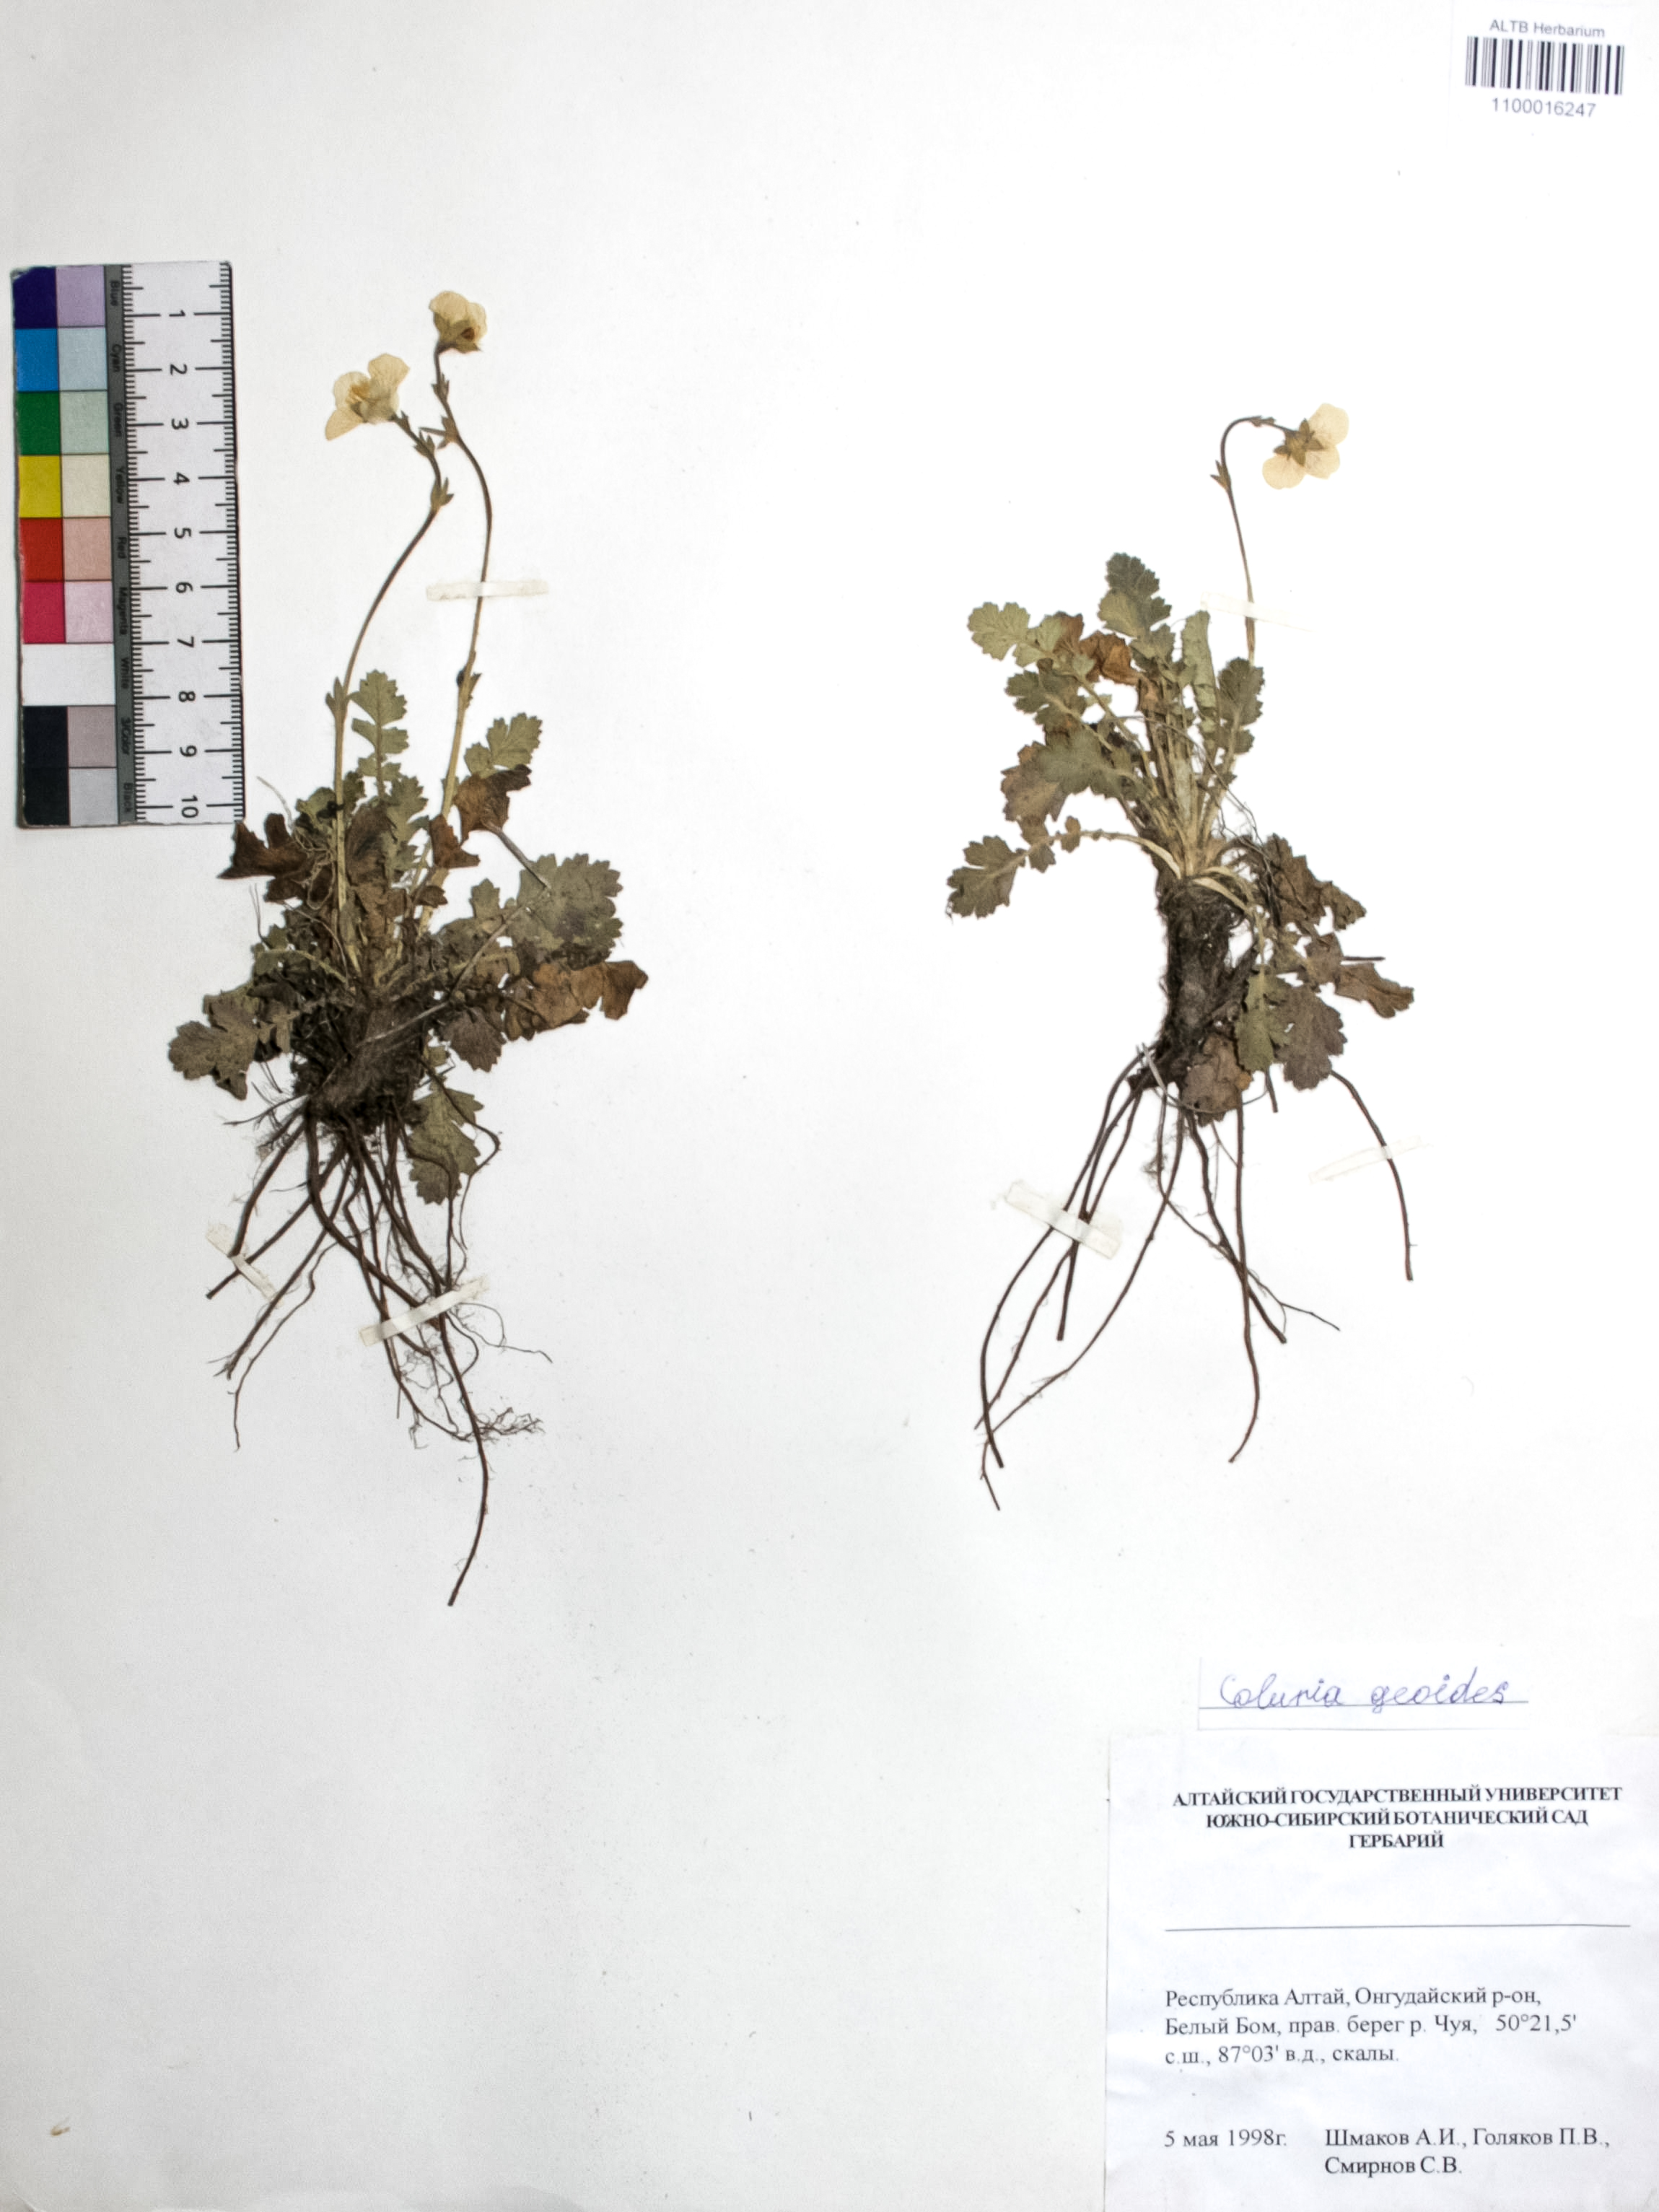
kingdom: Plantae
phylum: Tracheophyta
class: Magnoliopsida
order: Rosales
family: Rosaceae
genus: Geum
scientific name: Geum geoides
